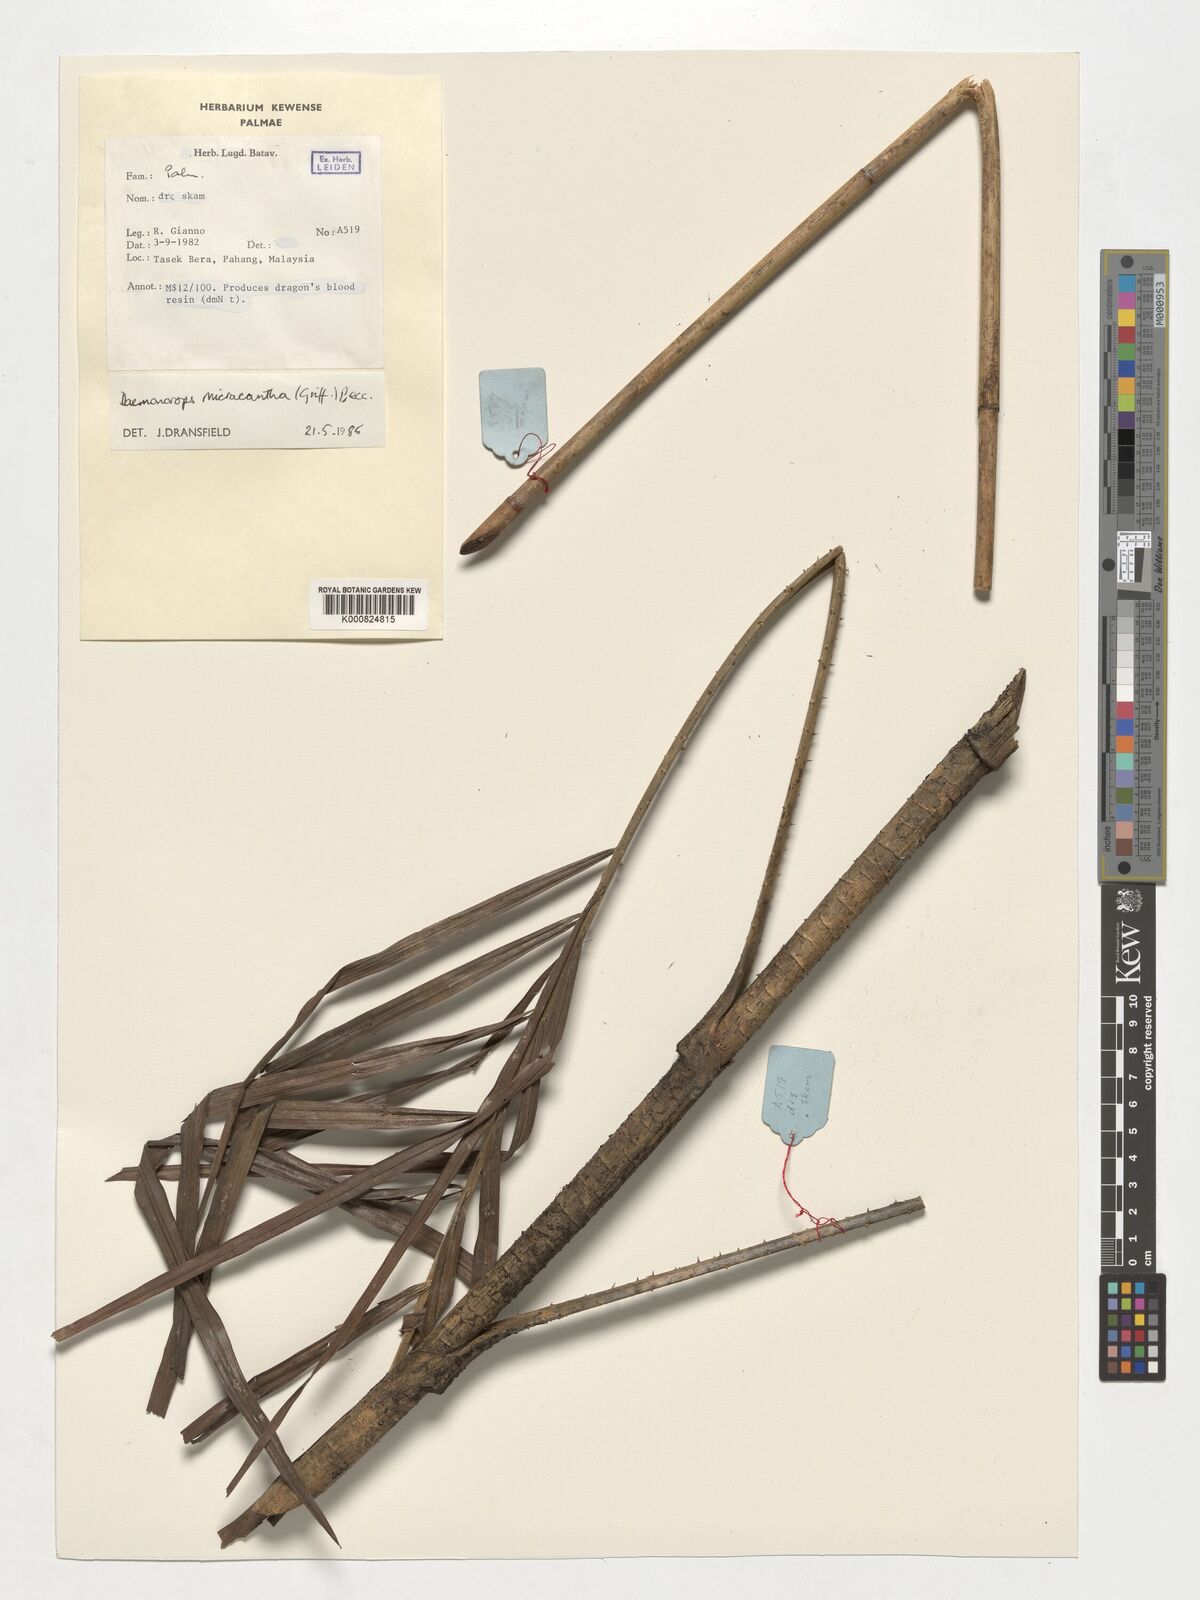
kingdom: Plantae
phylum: Tracheophyta
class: Liliopsida
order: Arecales
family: Arecaceae
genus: Calamus
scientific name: Calamus micracanthus
